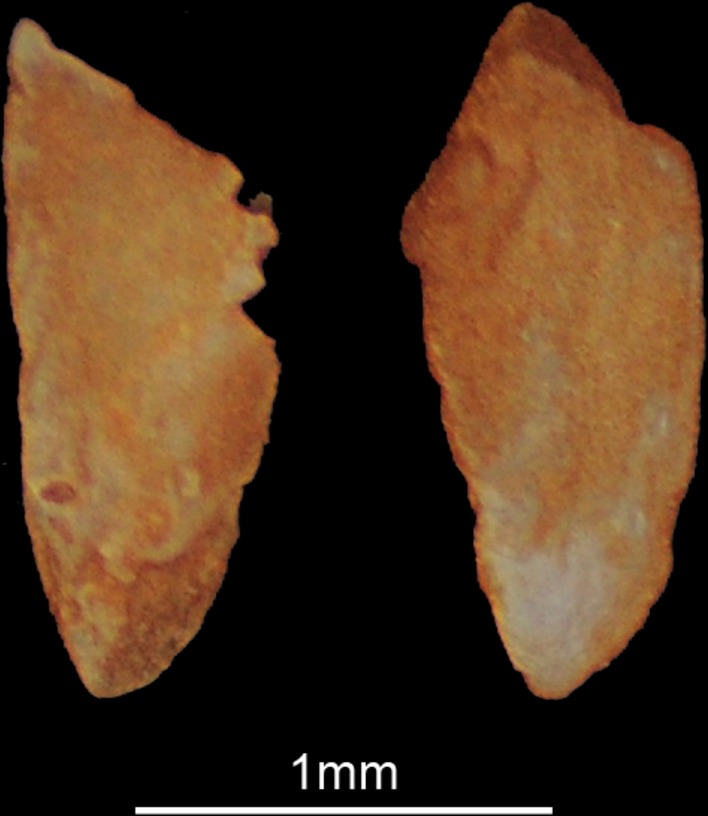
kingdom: Animalia
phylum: Chordata
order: Perciformes
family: Labridae
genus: Symphodus
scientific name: Symphodus tinca
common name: Peacock wrasse
